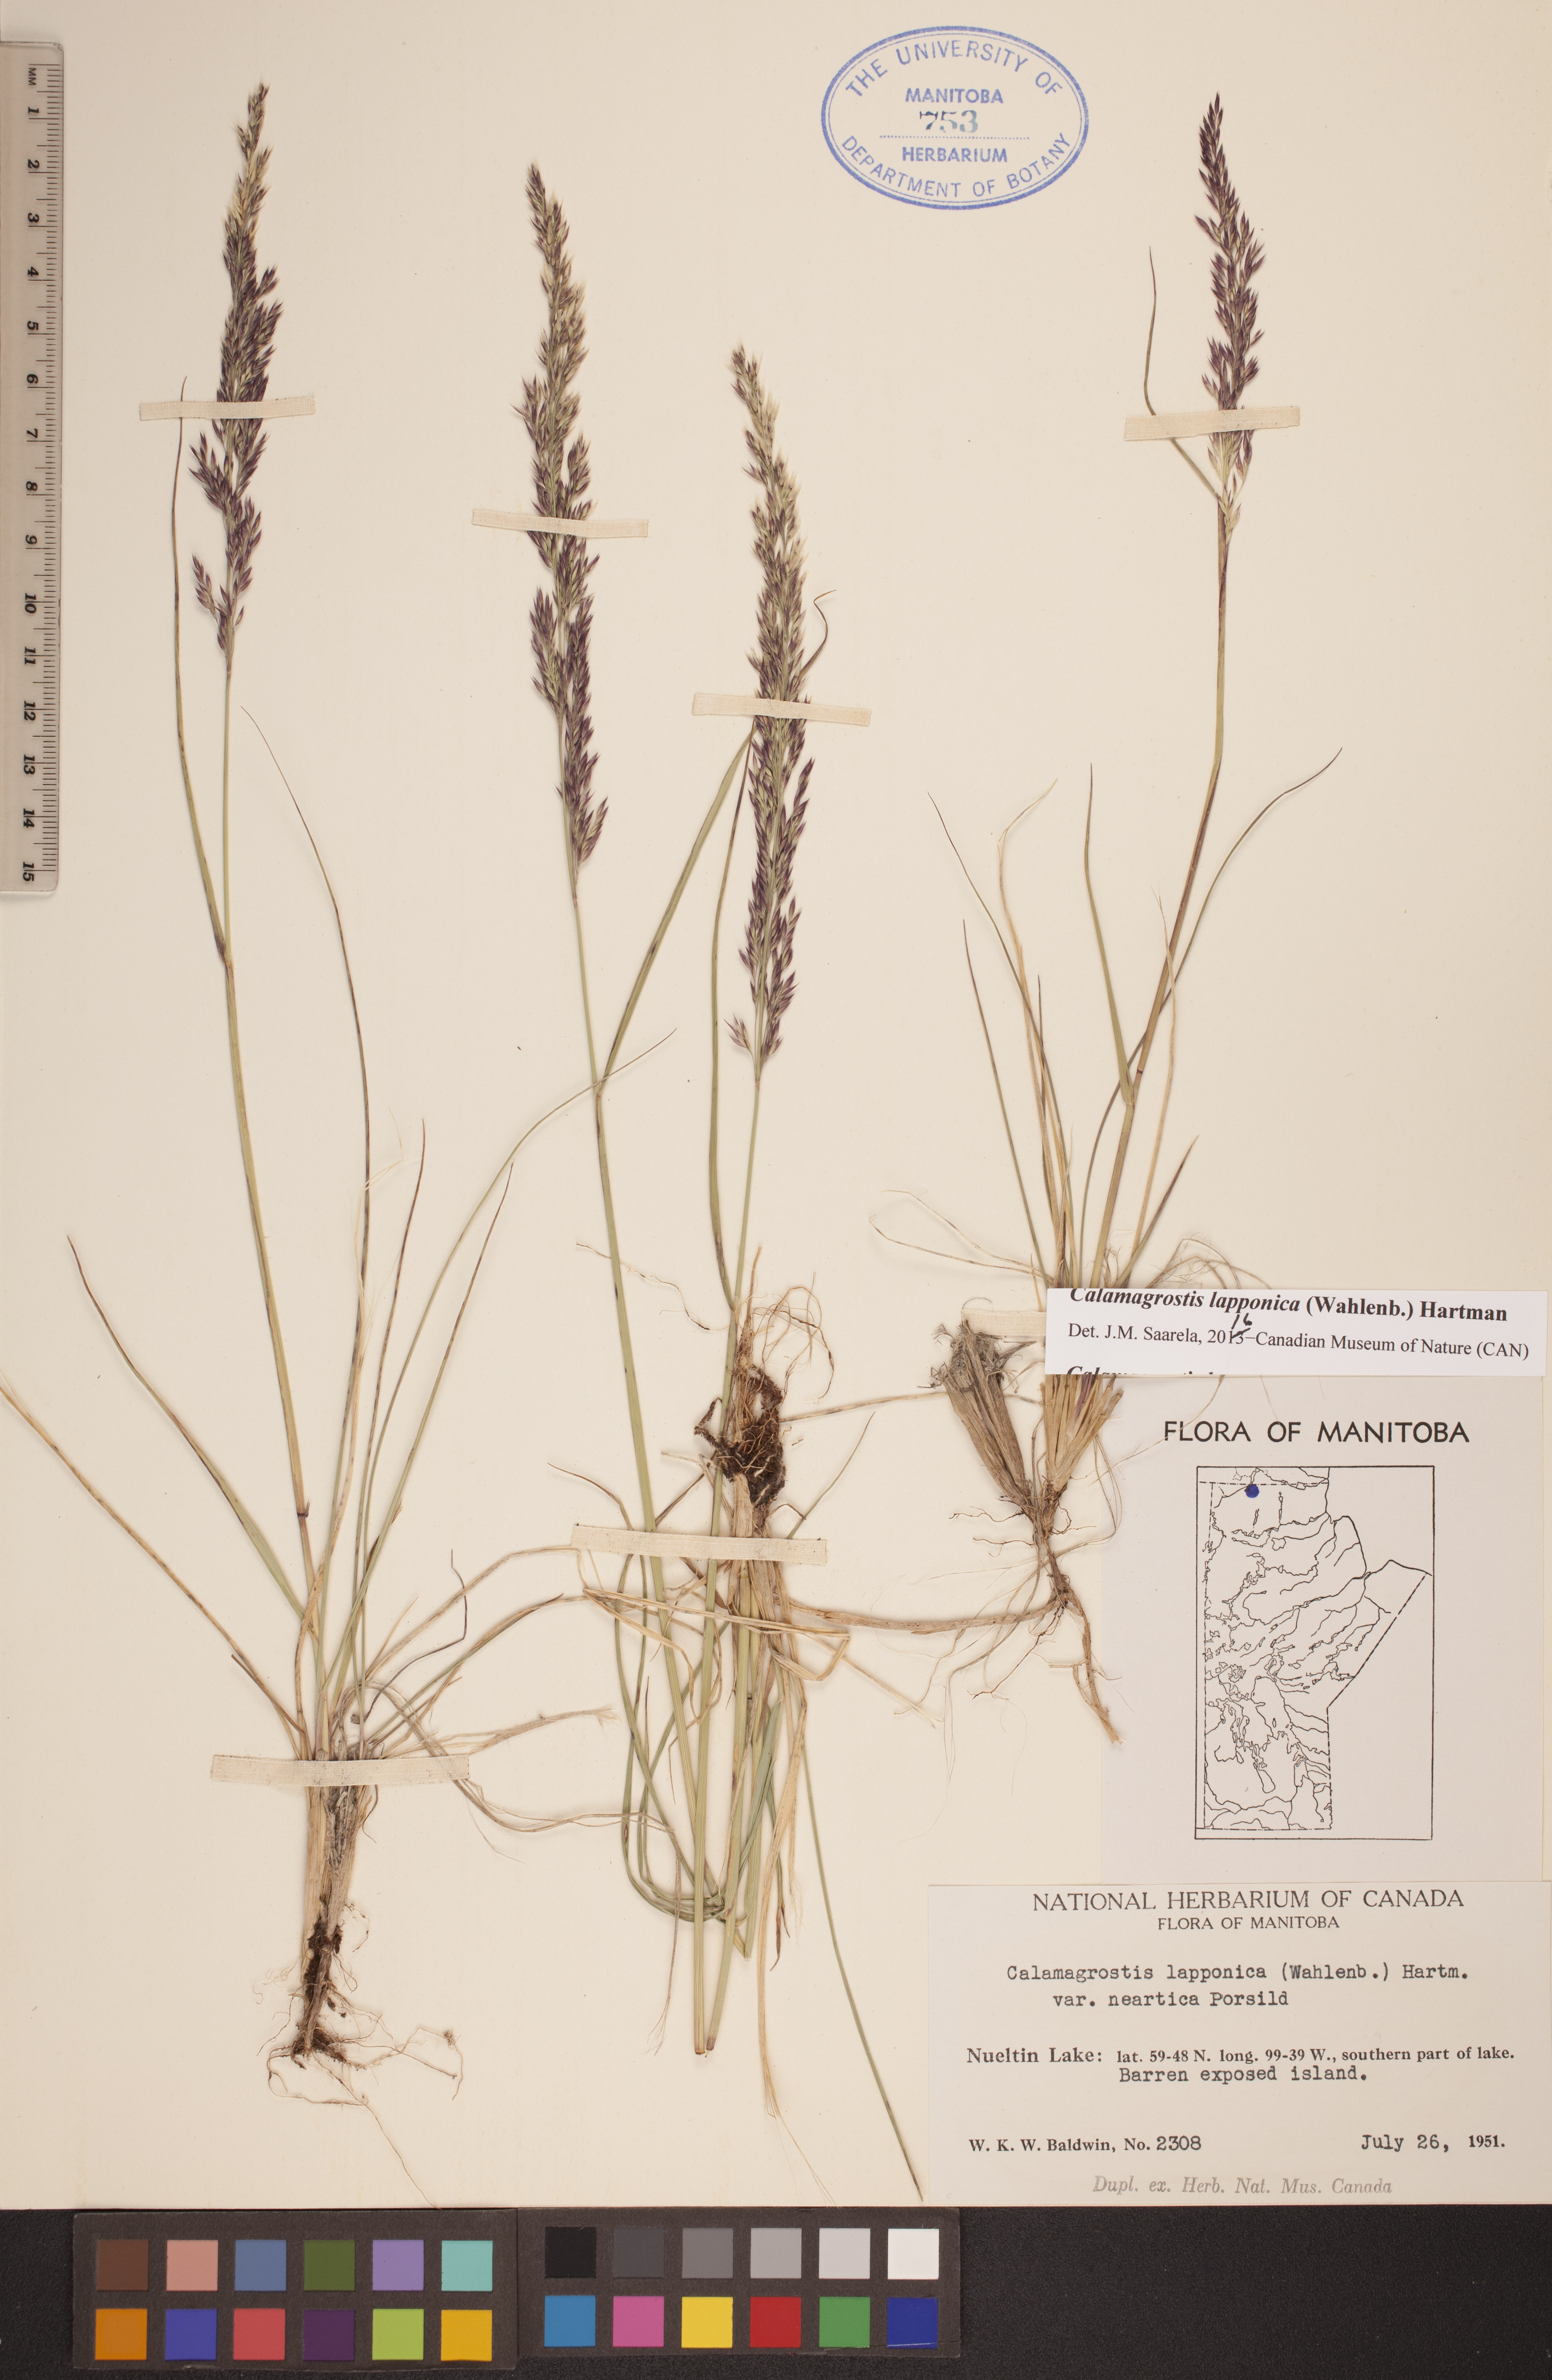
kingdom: Plantae
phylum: Tracheophyta
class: Liliopsida
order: Poales
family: Poaceae
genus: Calamagrostis
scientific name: Calamagrostis lapponica
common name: Lapland reedgrass
